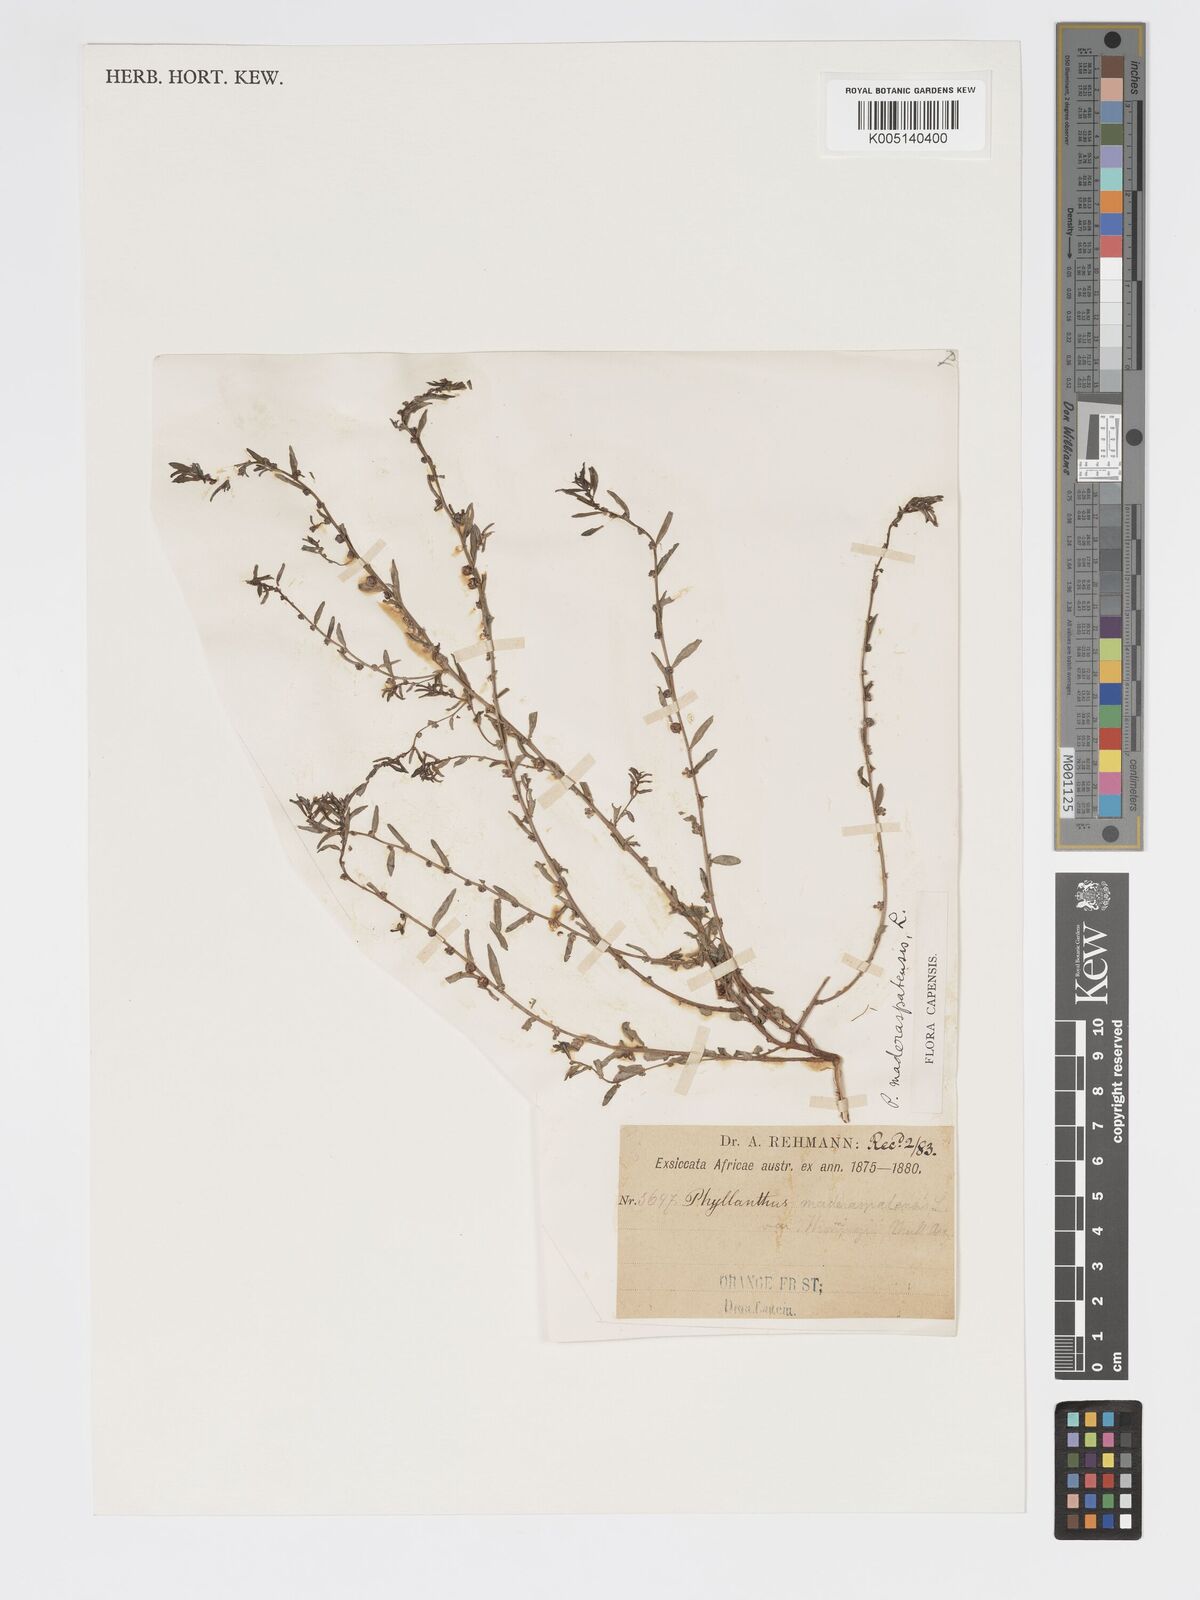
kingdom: Plantae
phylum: Tracheophyta
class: Magnoliopsida
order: Malpighiales
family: Phyllanthaceae
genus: Phyllanthus
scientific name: Phyllanthus maderaspatensis
